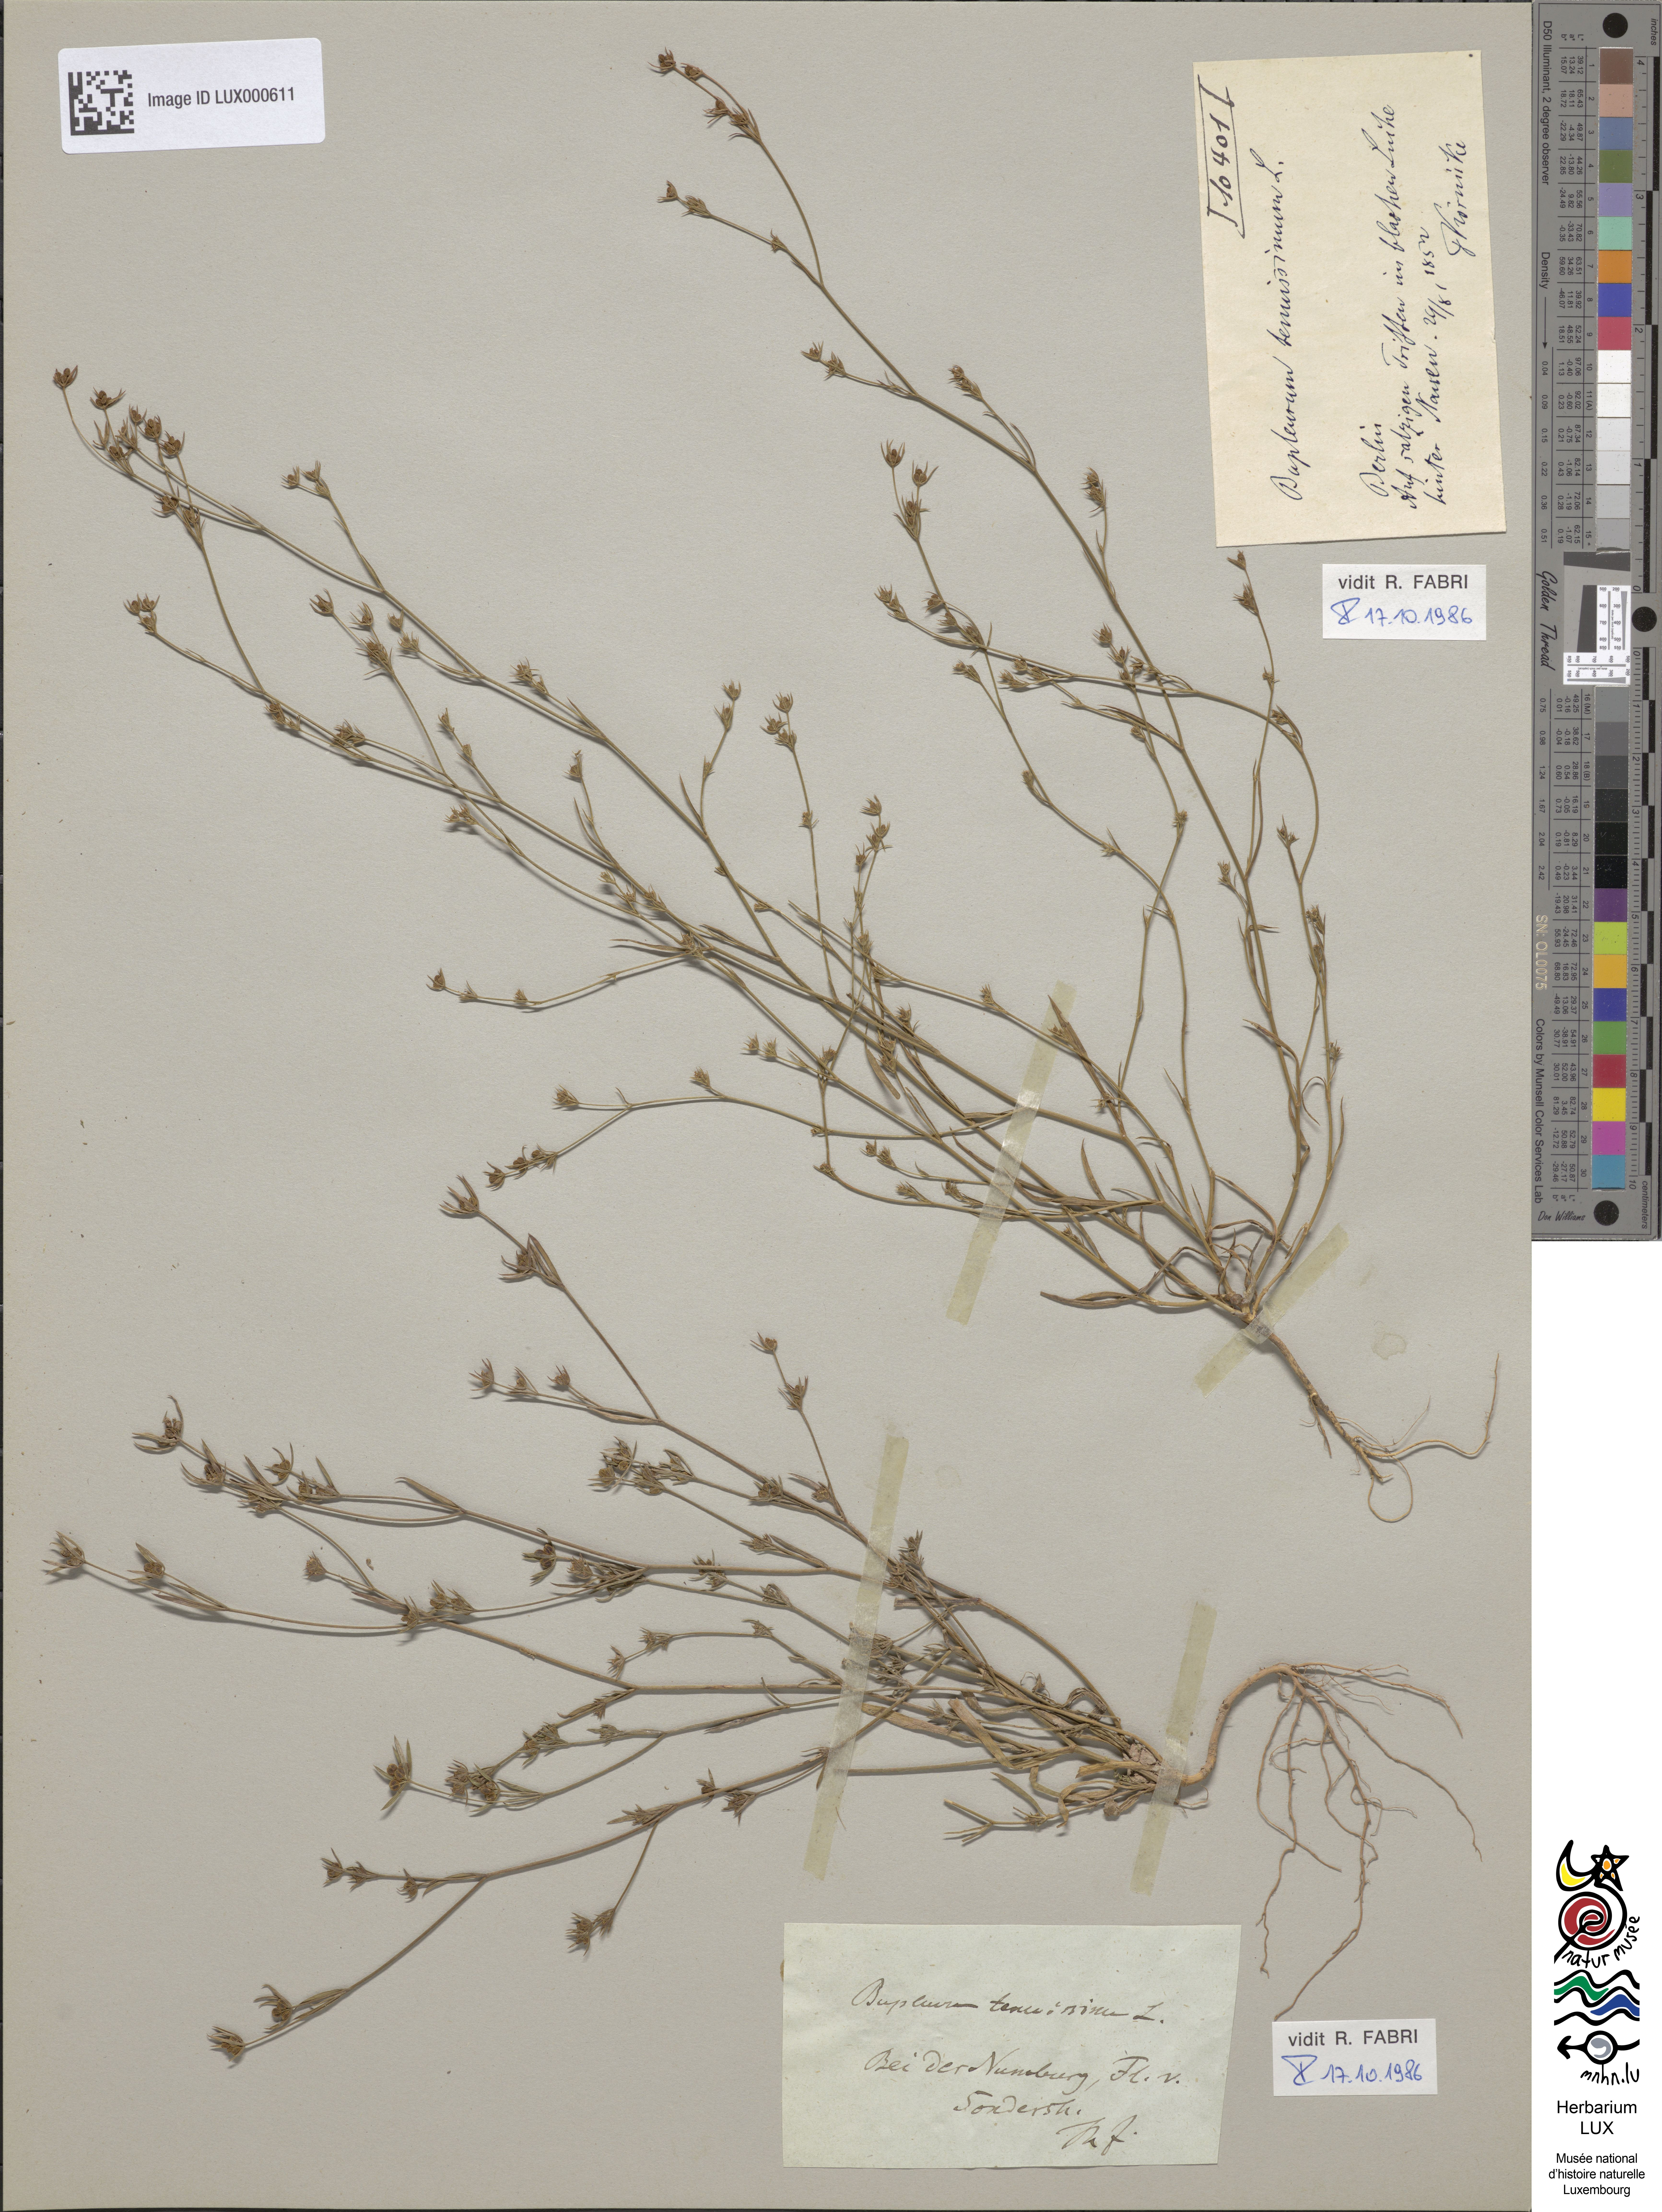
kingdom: Plantae
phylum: Tracheophyta
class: Magnoliopsida
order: Apiales
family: Apiaceae
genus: Bupleurum
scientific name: Bupleurum tenuissimum
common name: Slender hare's-ear
